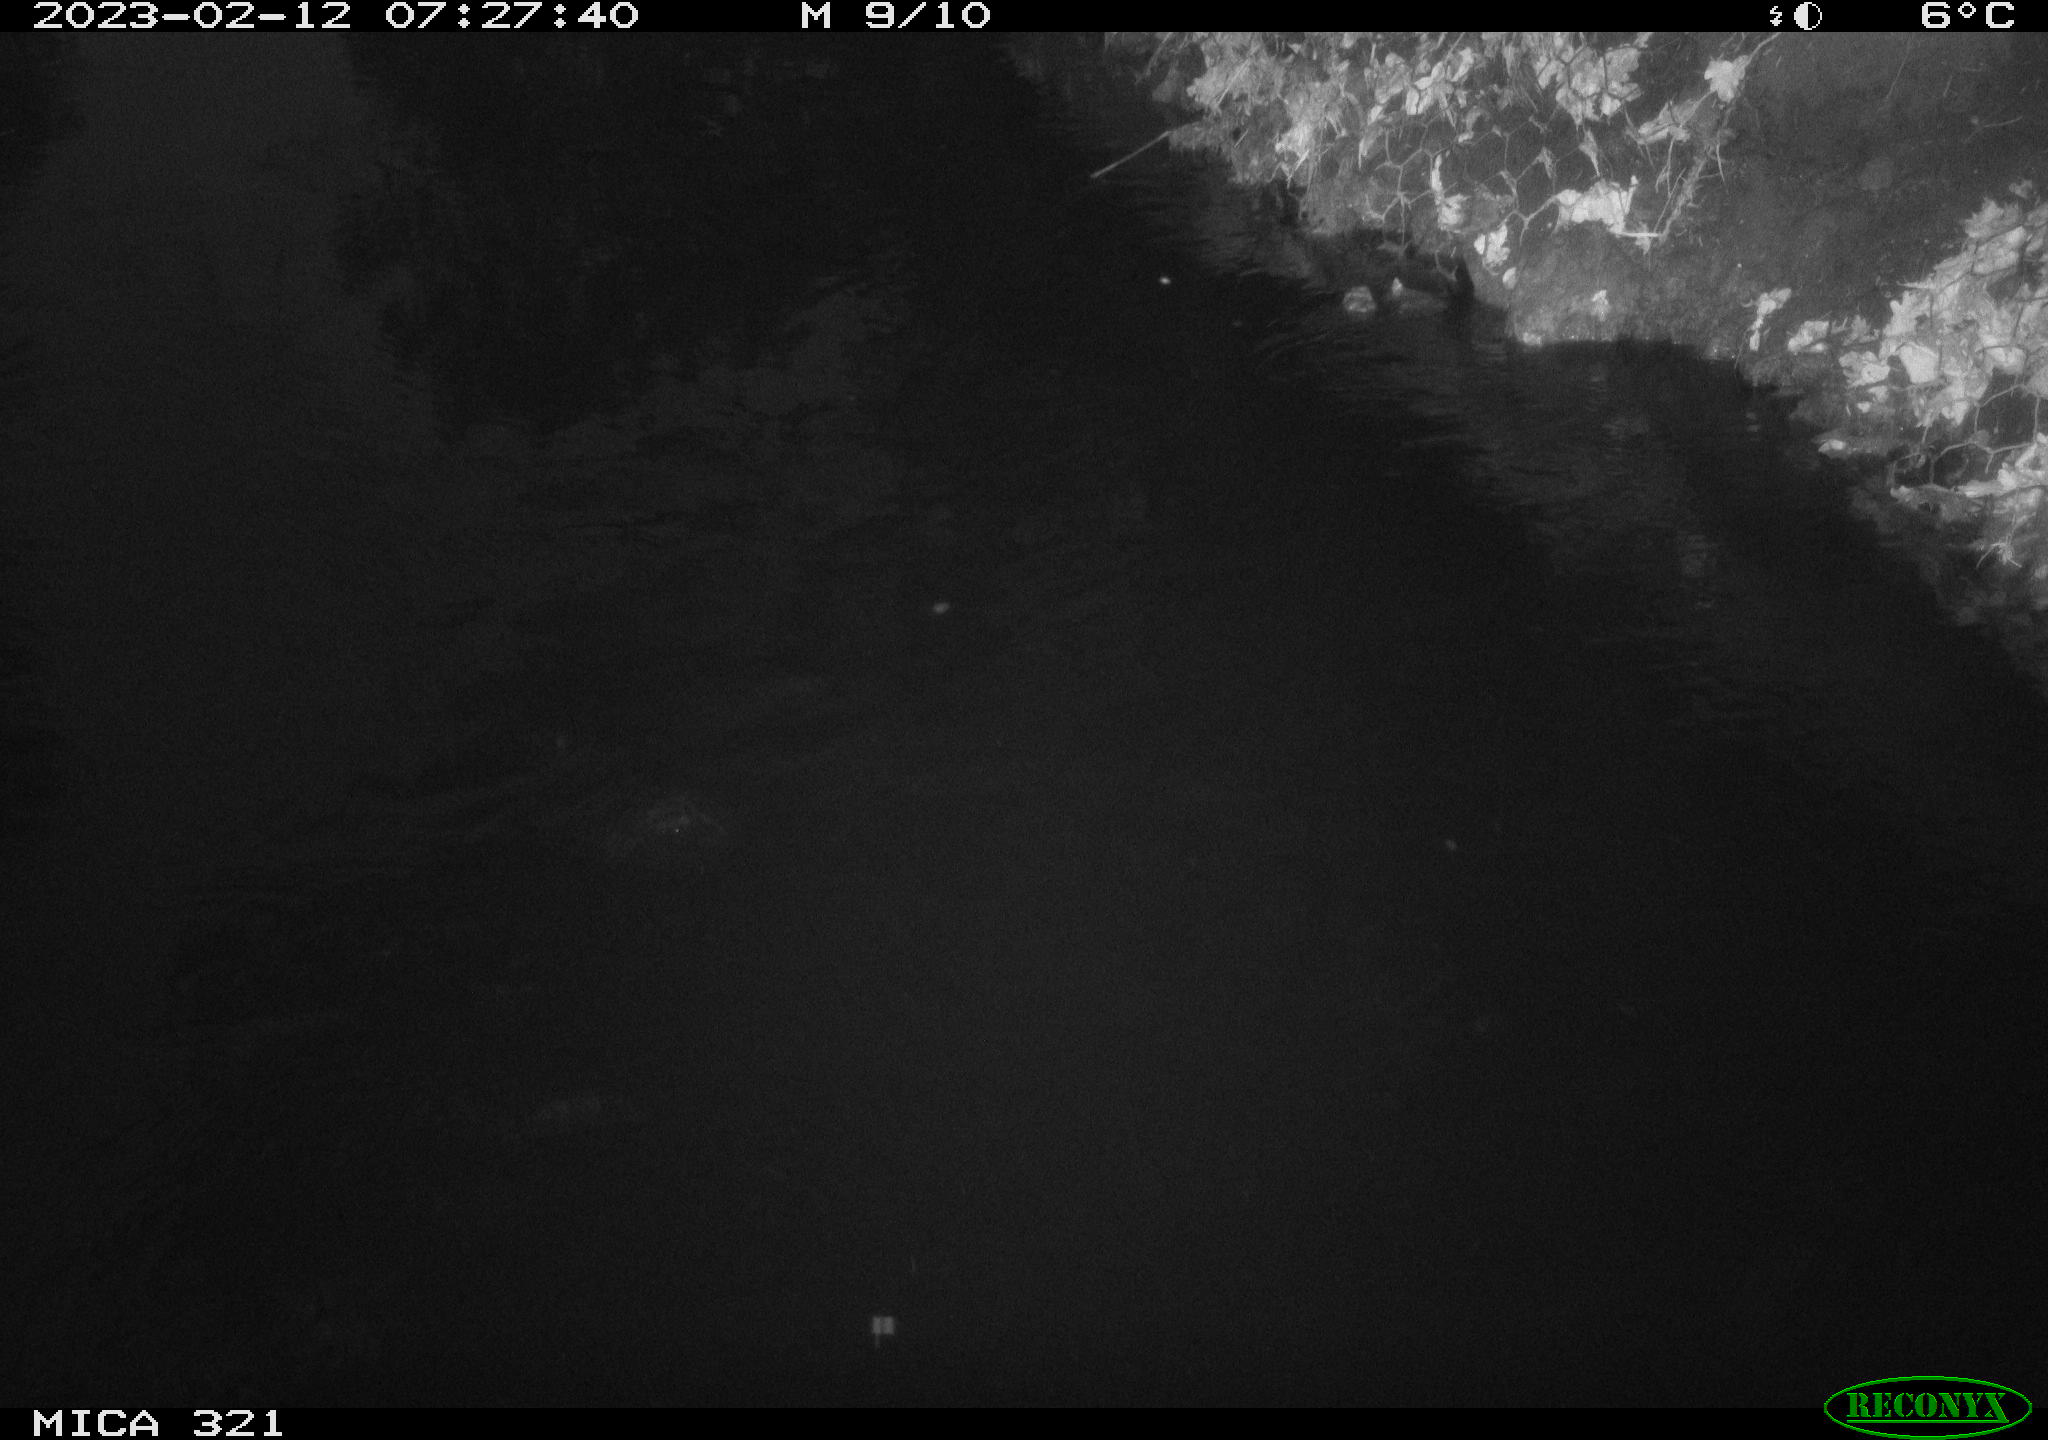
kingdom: Animalia
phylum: Chordata
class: Aves
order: Anseriformes
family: Anatidae
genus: Anas
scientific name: Anas
